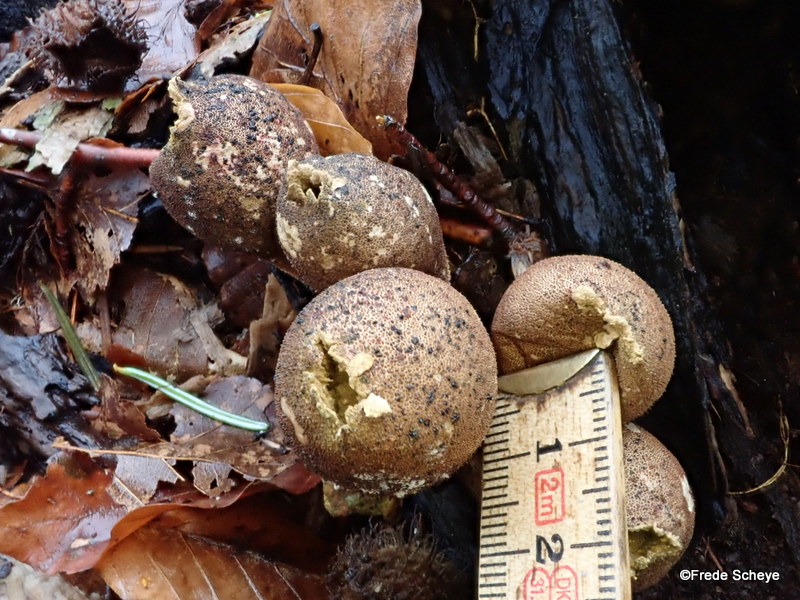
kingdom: Fungi
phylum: Basidiomycota
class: Agaricomycetes
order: Agaricales
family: Lycoperdaceae
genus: Apioperdon
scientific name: Apioperdon pyriforme
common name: pære-støvbold
